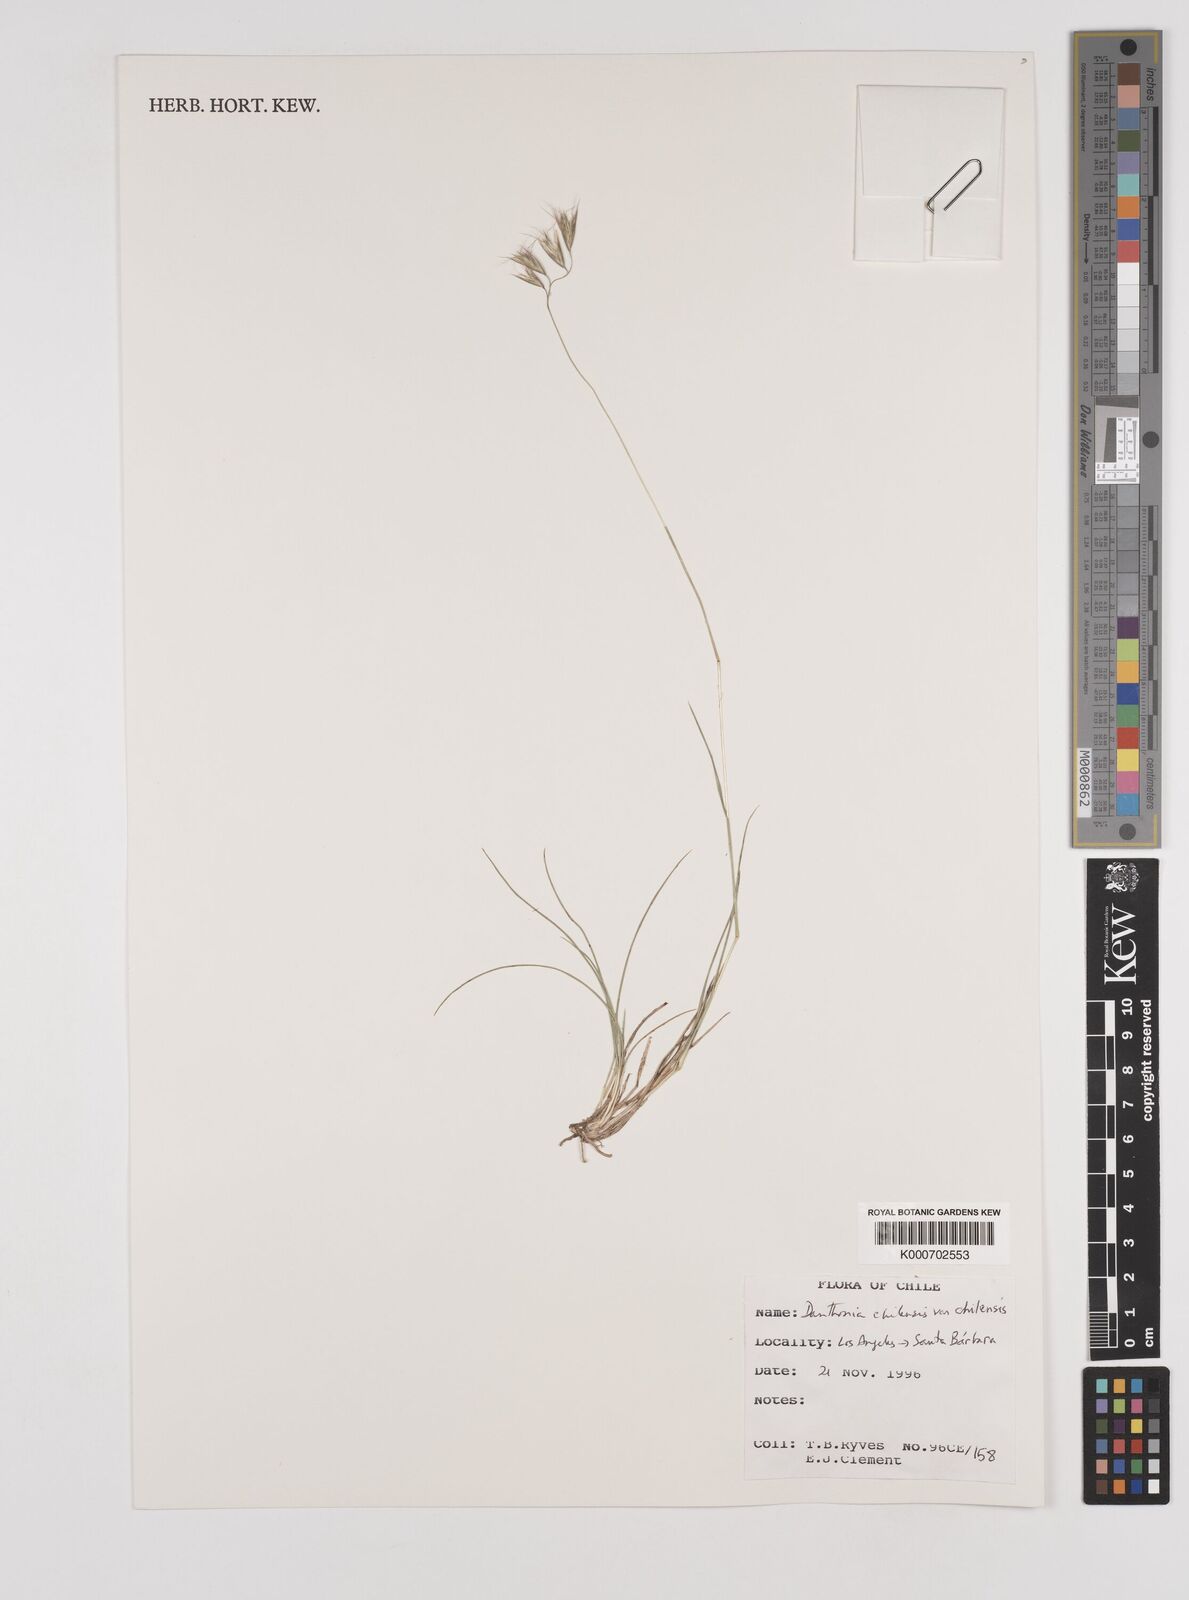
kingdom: Plantae
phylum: Tracheophyta
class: Liliopsida
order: Poales
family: Poaceae
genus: Danthonia
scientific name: Danthonia
